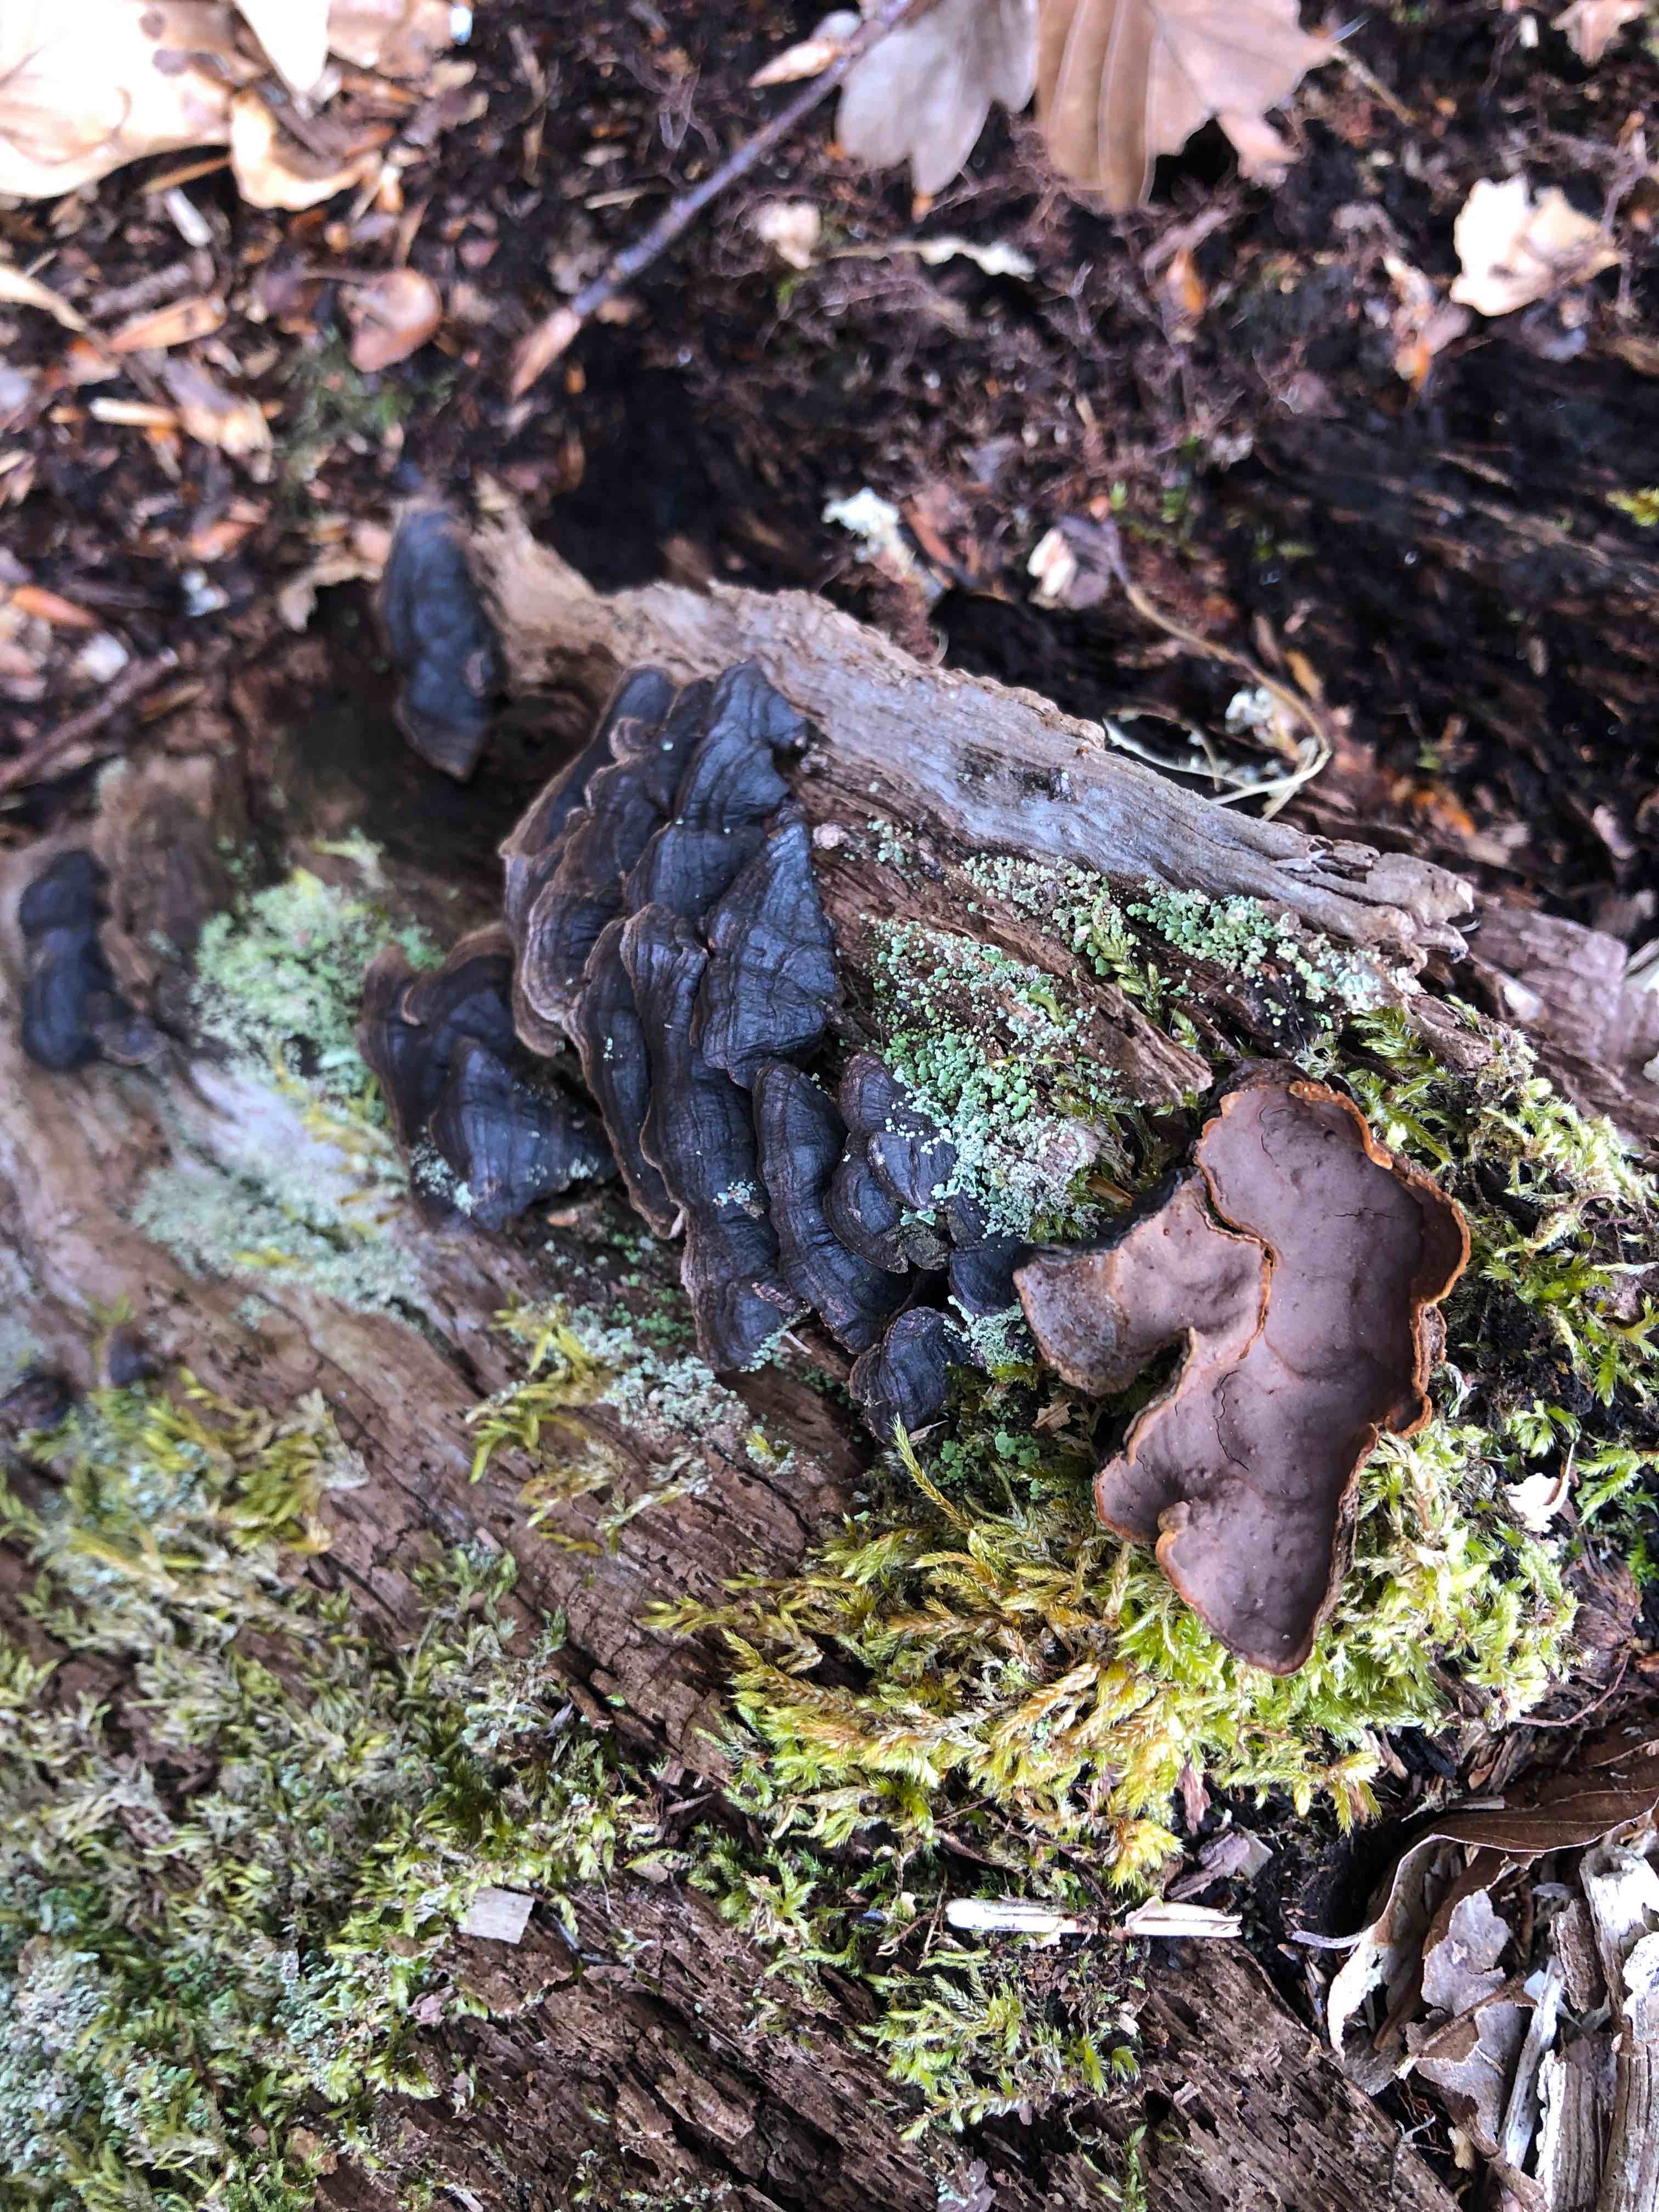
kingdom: Fungi
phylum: Basidiomycota
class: Agaricomycetes
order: Hymenochaetales
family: Hymenochaetaceae
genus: Hymenochaete
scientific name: Hymenochaete rubiginosa
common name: stiv ruslædersvamp
